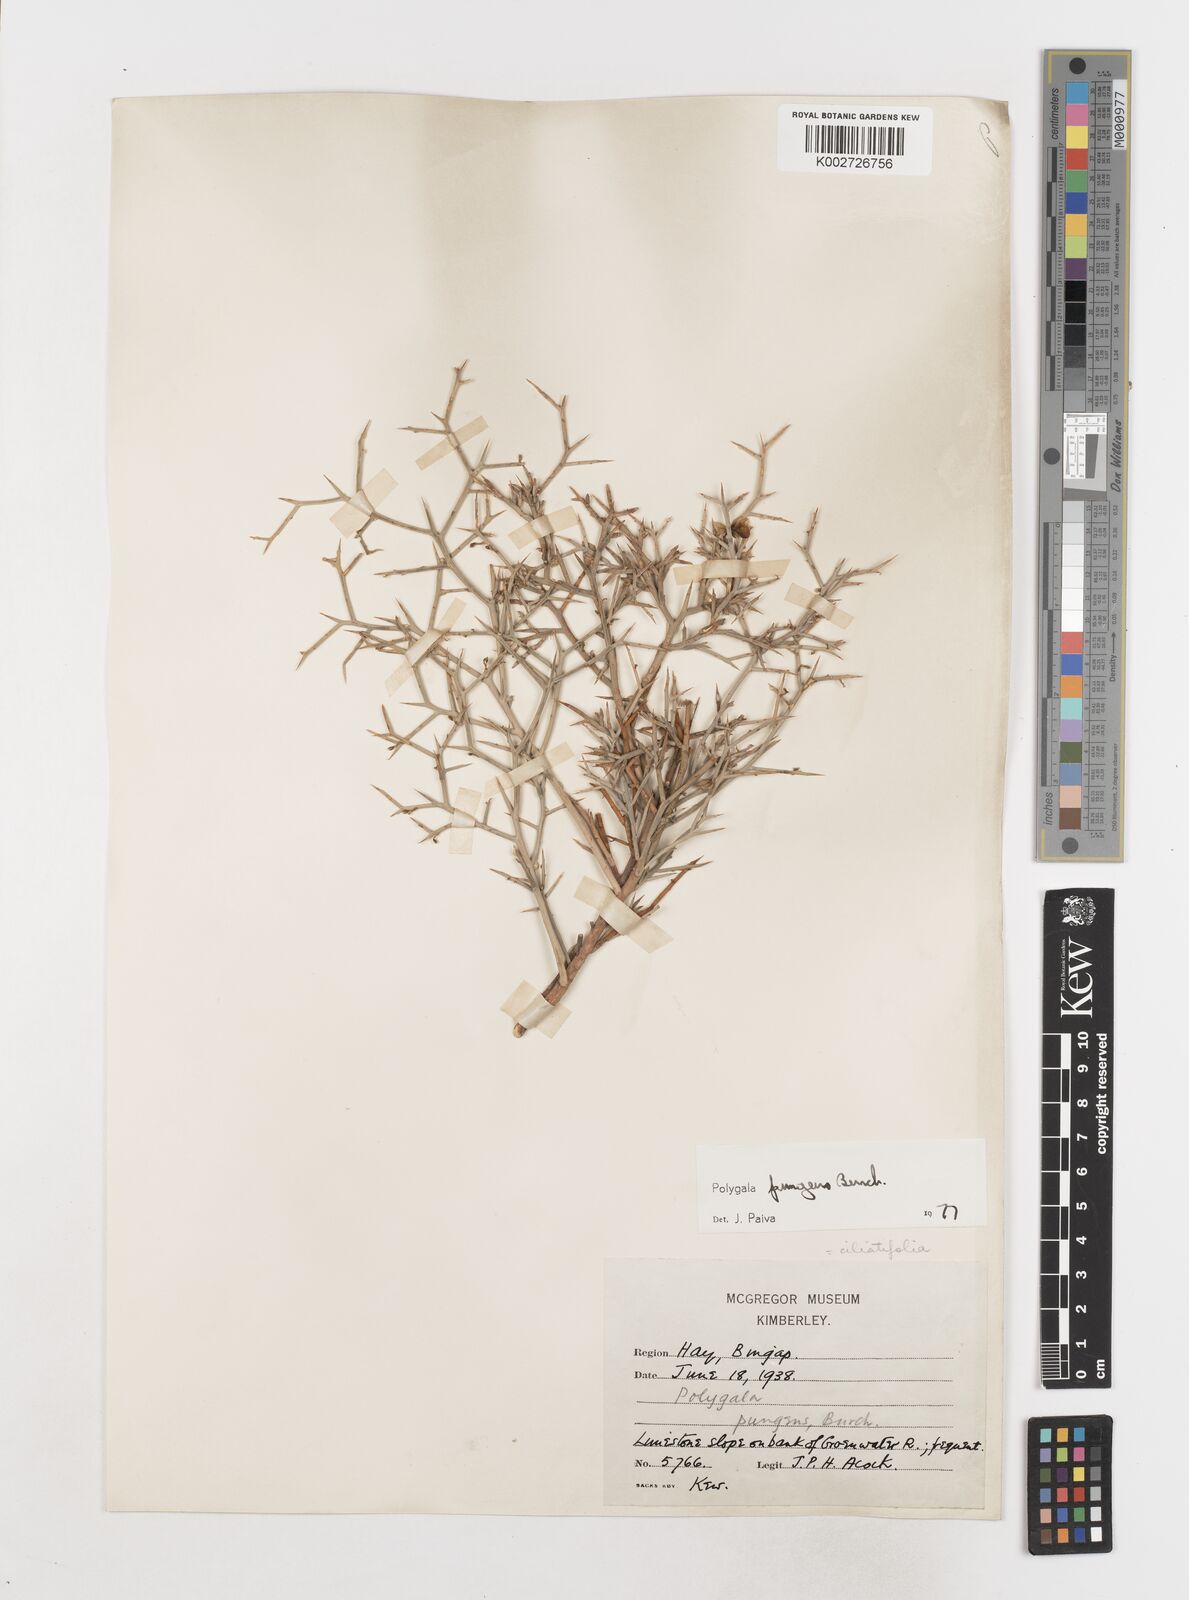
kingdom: Plantae
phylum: Tracheophyta
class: Magnoliopsida
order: Fabales
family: Polygalaceae
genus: Polygala
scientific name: Polygala pungens
